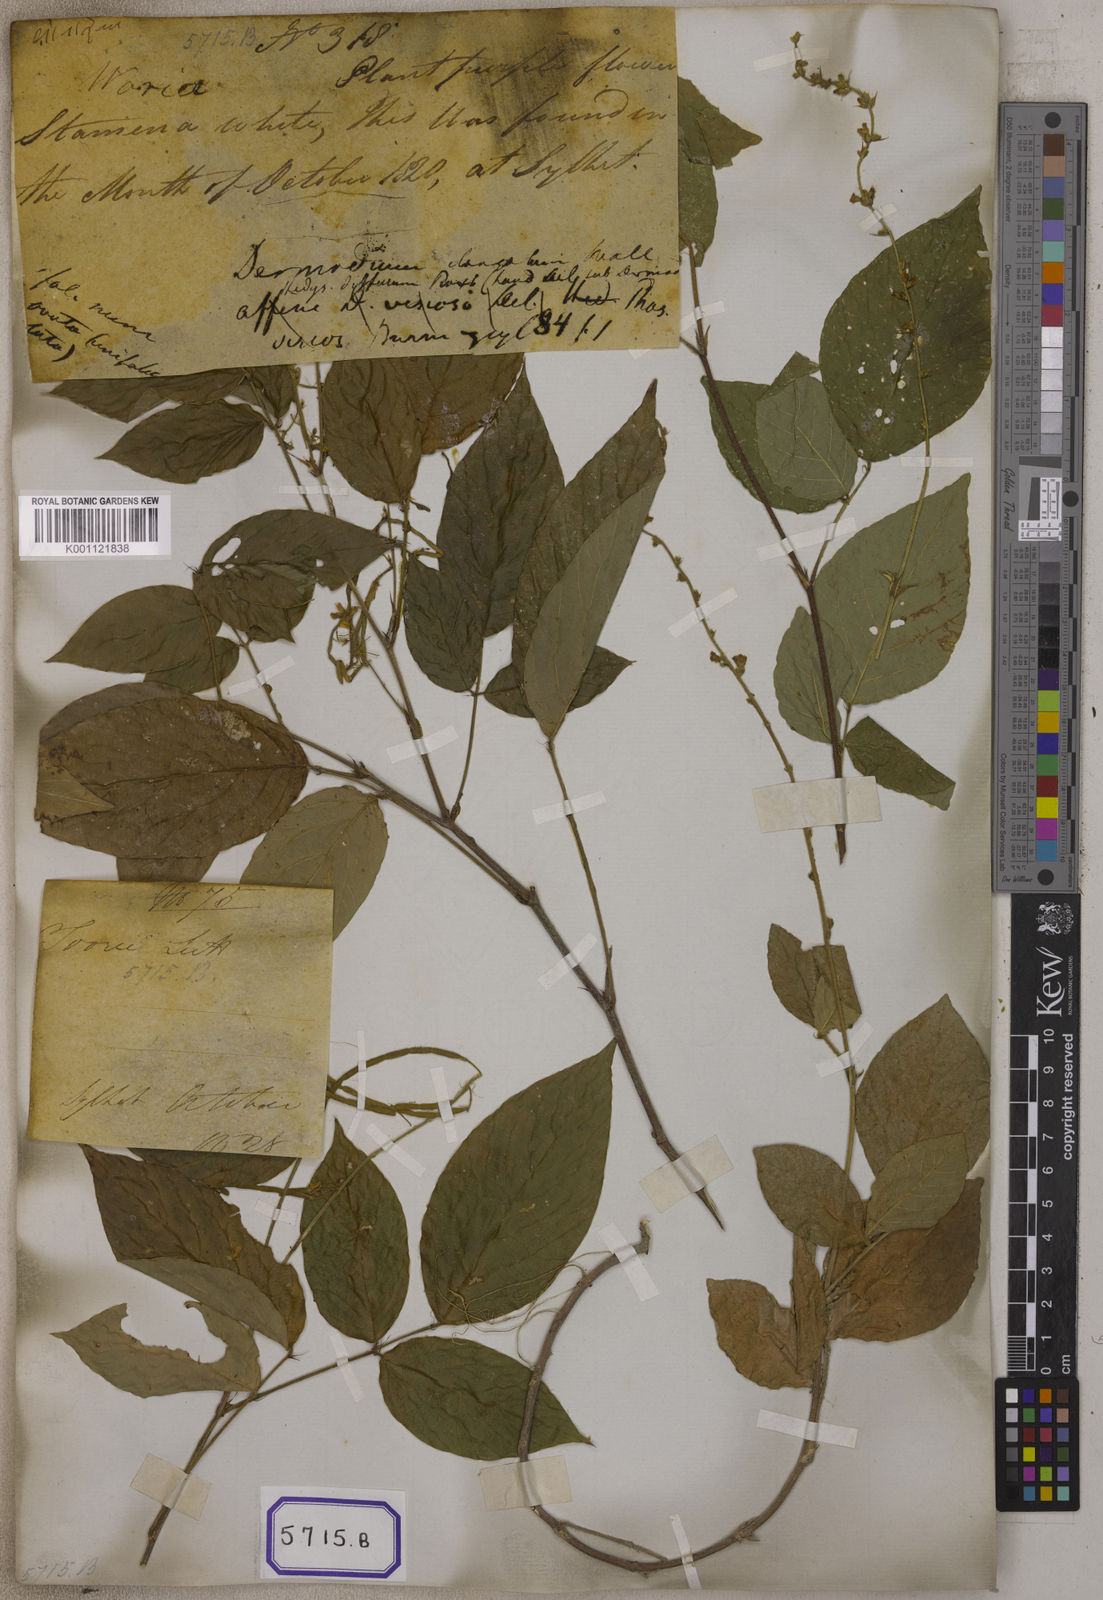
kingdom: Plantae
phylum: Tracheophyta
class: Magnoliopsida
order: Fabales
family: Fabaceae
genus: Desmodium
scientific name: Desmodium
